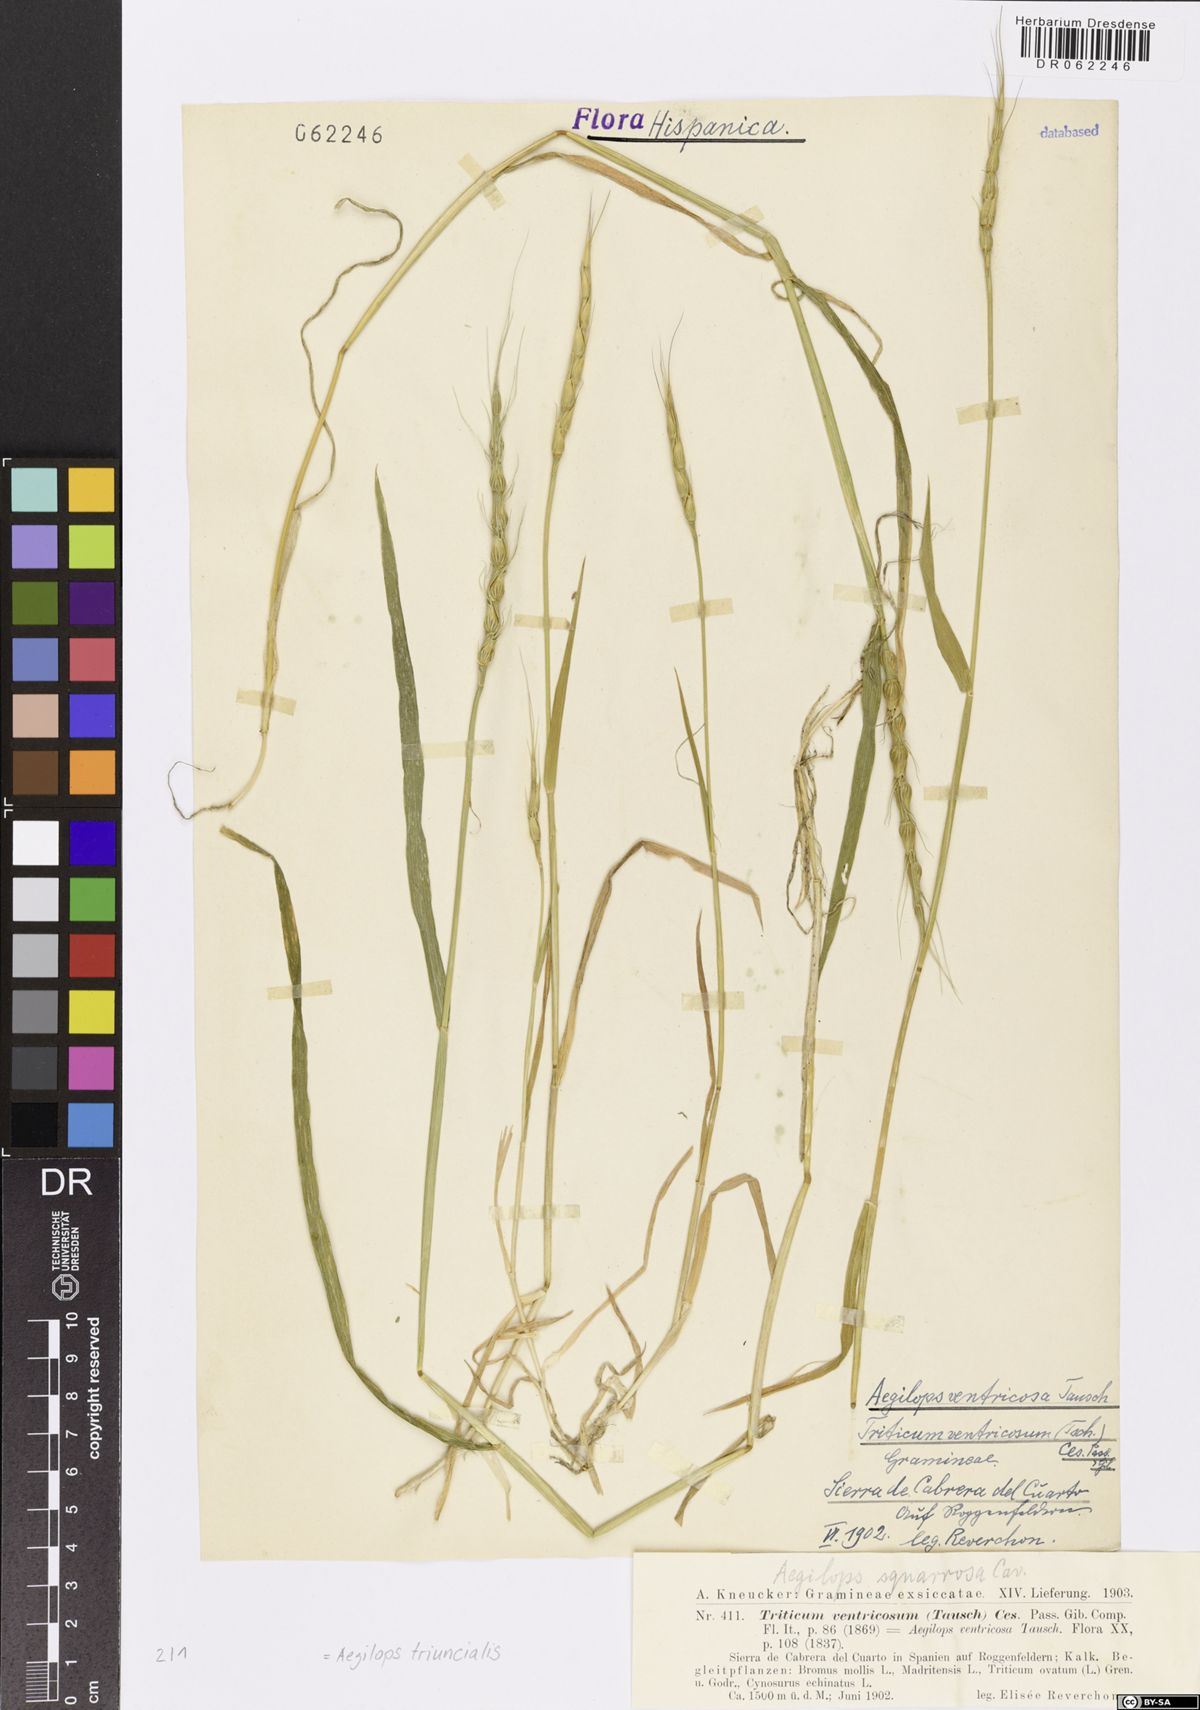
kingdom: Plantae
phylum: Tracheophyta
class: Liliopsida
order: Poales
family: Poaceae
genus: Aegilops
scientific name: Aegilops triuncialis
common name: Barb goat grass
